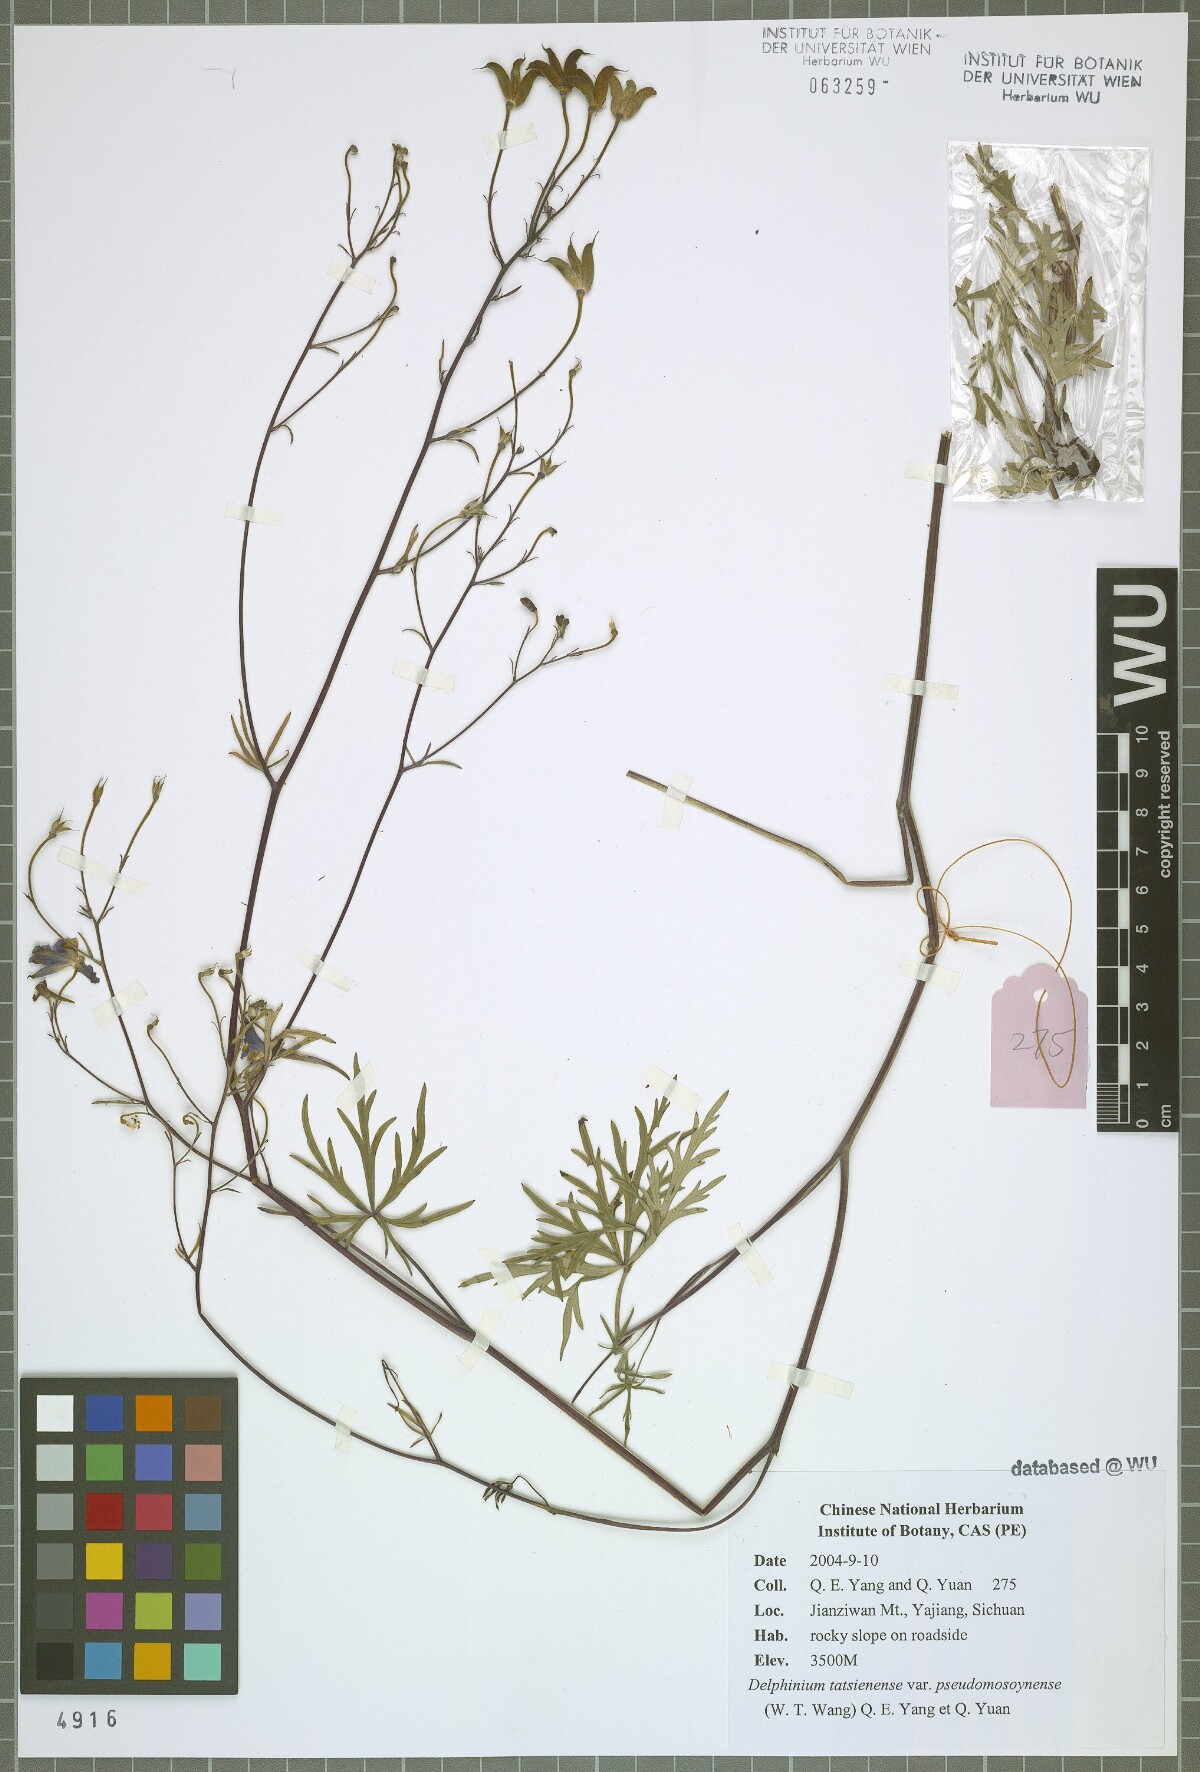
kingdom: Plantae
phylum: Tracheophyta
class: Magnoliopsida
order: Ranunculales
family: Ranunculaceae
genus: Delphinium
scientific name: Delphinium tatsienense
